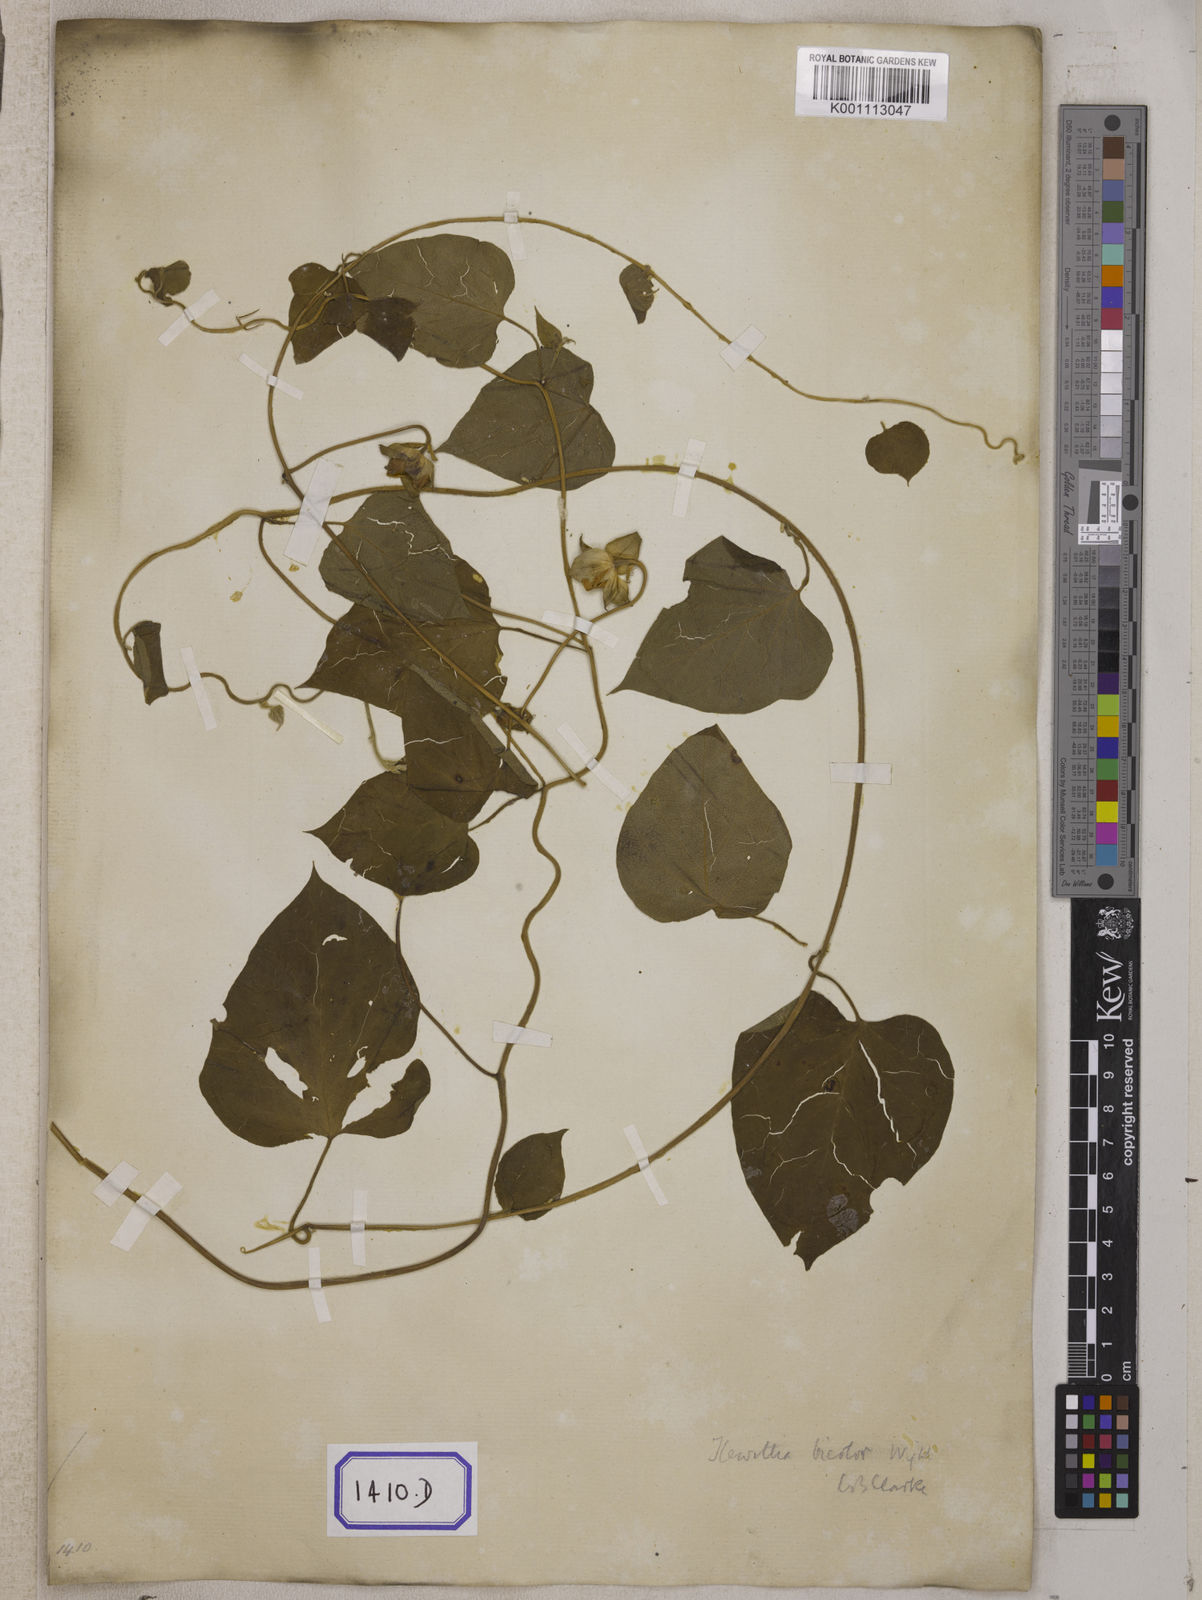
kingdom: Plantae
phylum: Tracheophyta
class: Magnoliopsida
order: Solanales
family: Convolvulaceae
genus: Convolvulus
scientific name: Convolvulus
